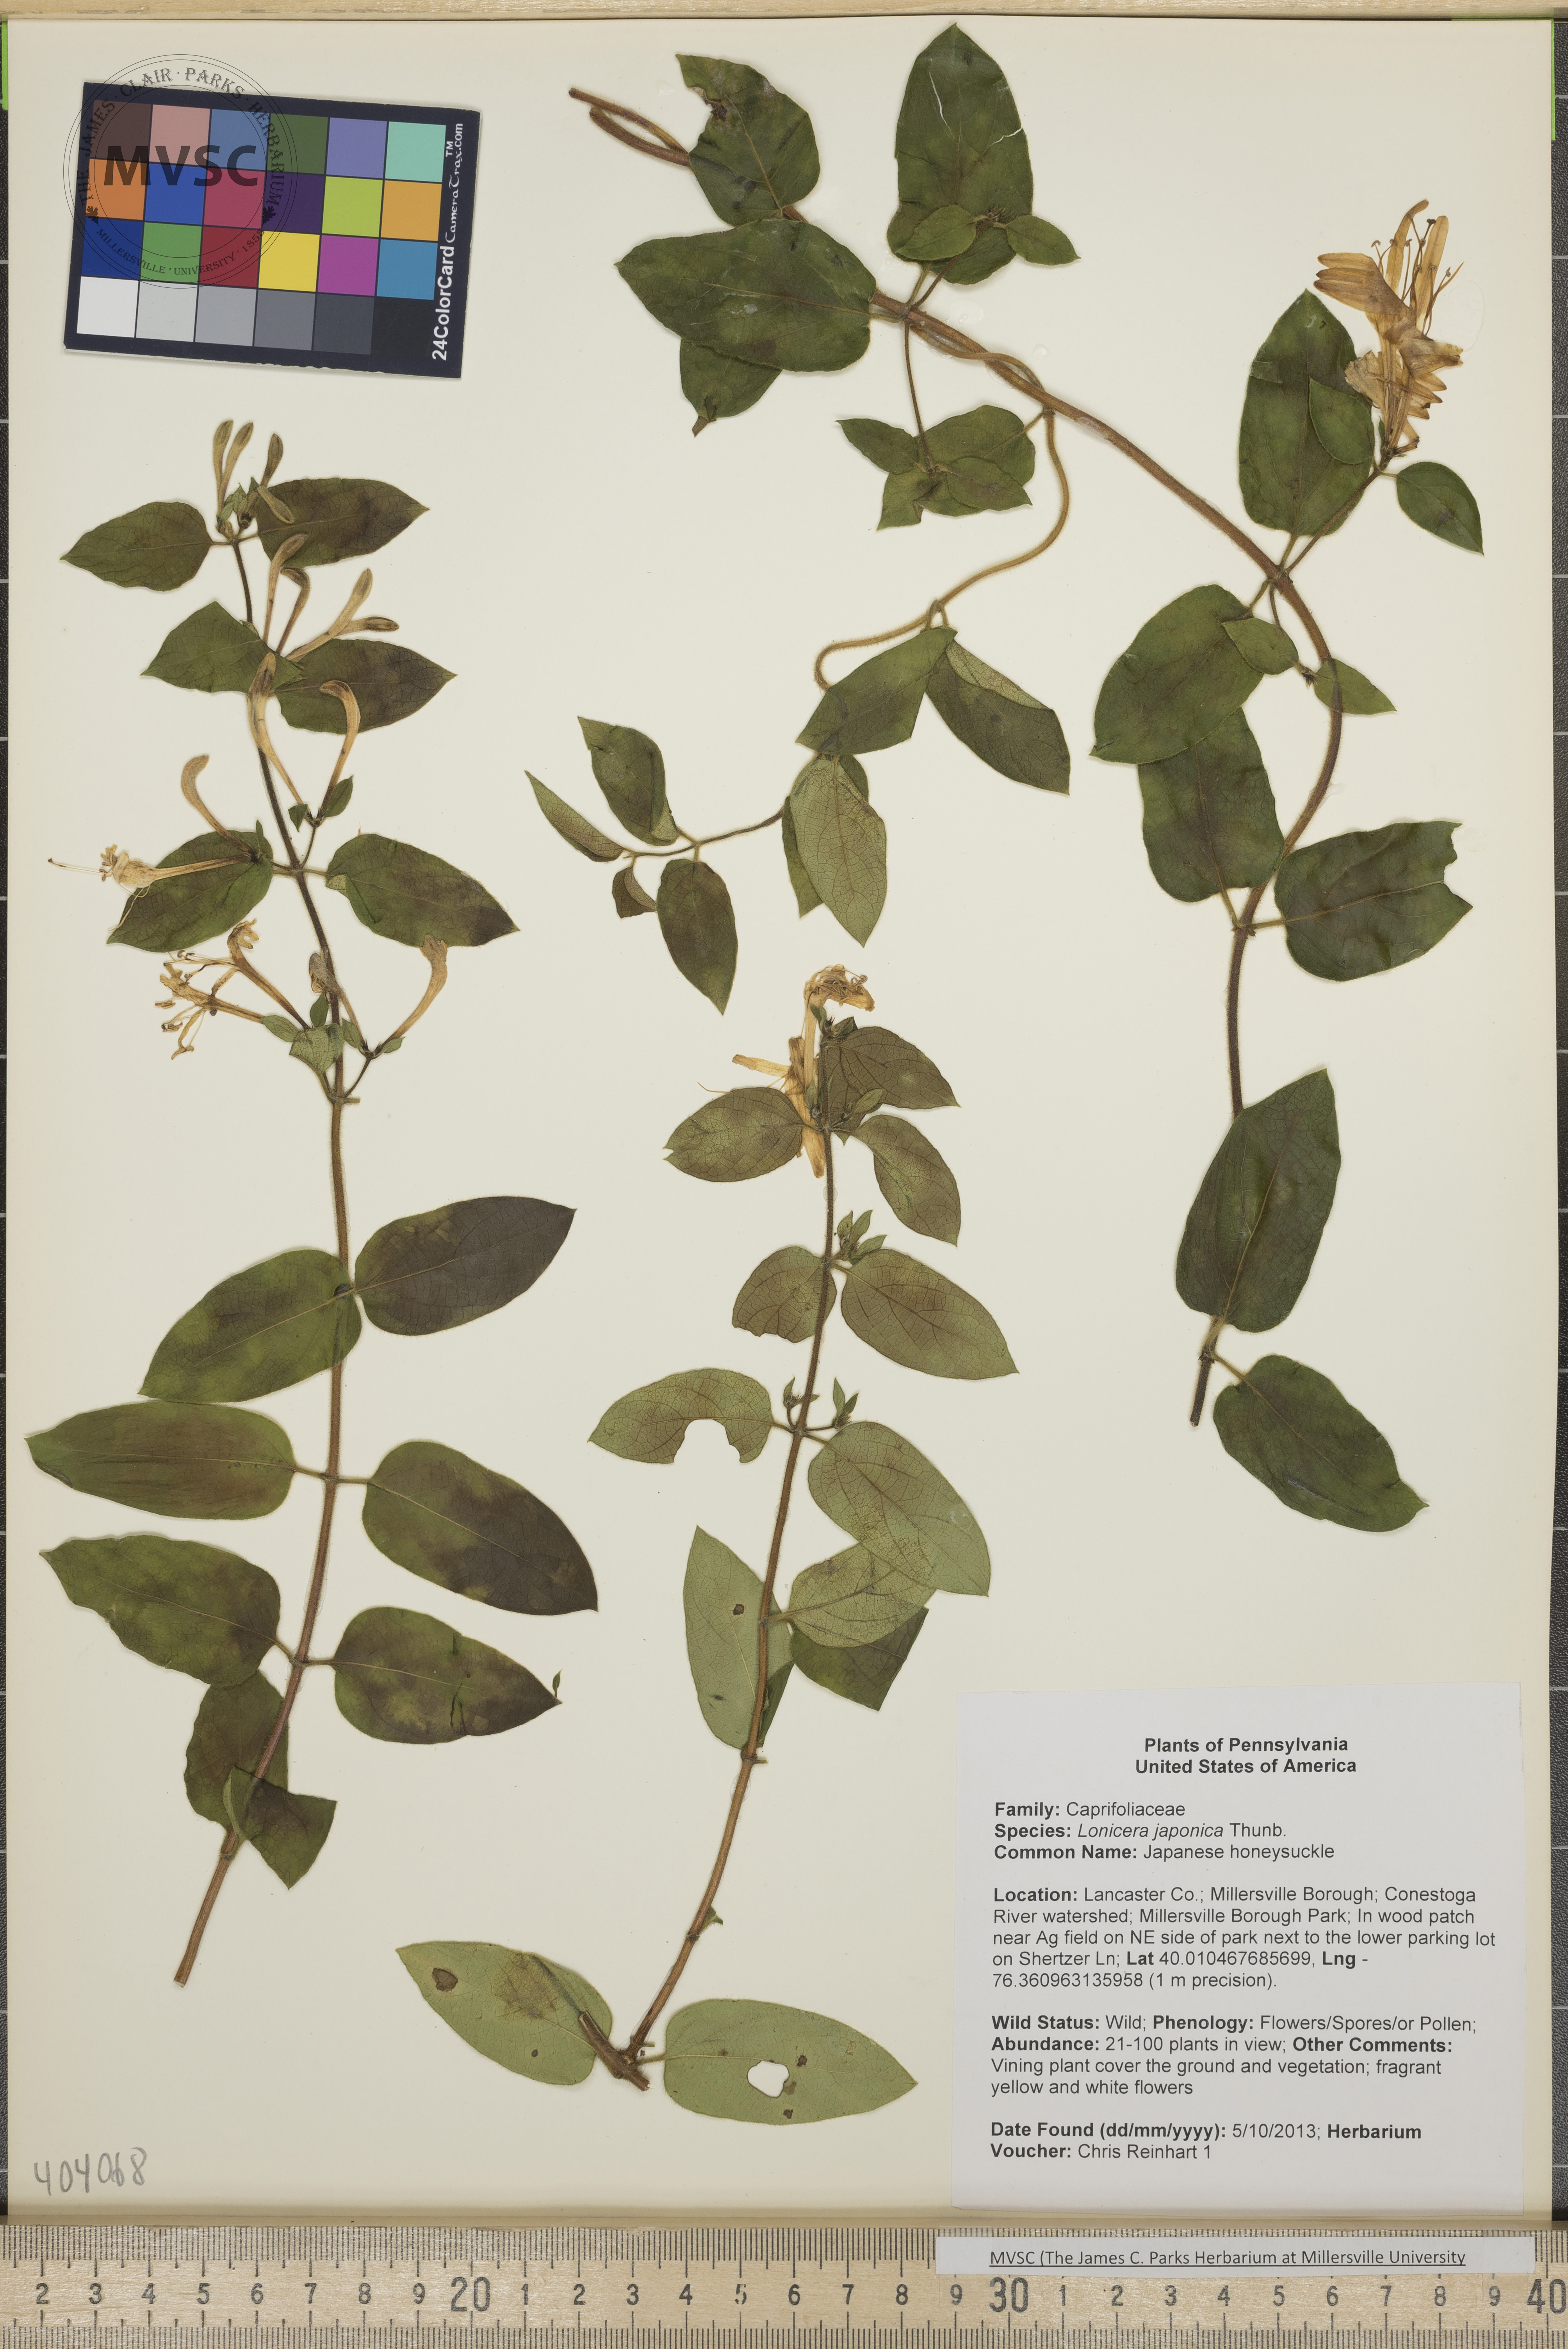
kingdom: Plantae
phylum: Tracheophyta
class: Magnoliopsida
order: Dipsacales
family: Caprifoliaceae
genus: Lonicera
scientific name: Lonicera japonica
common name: Japanese honeysuckle
